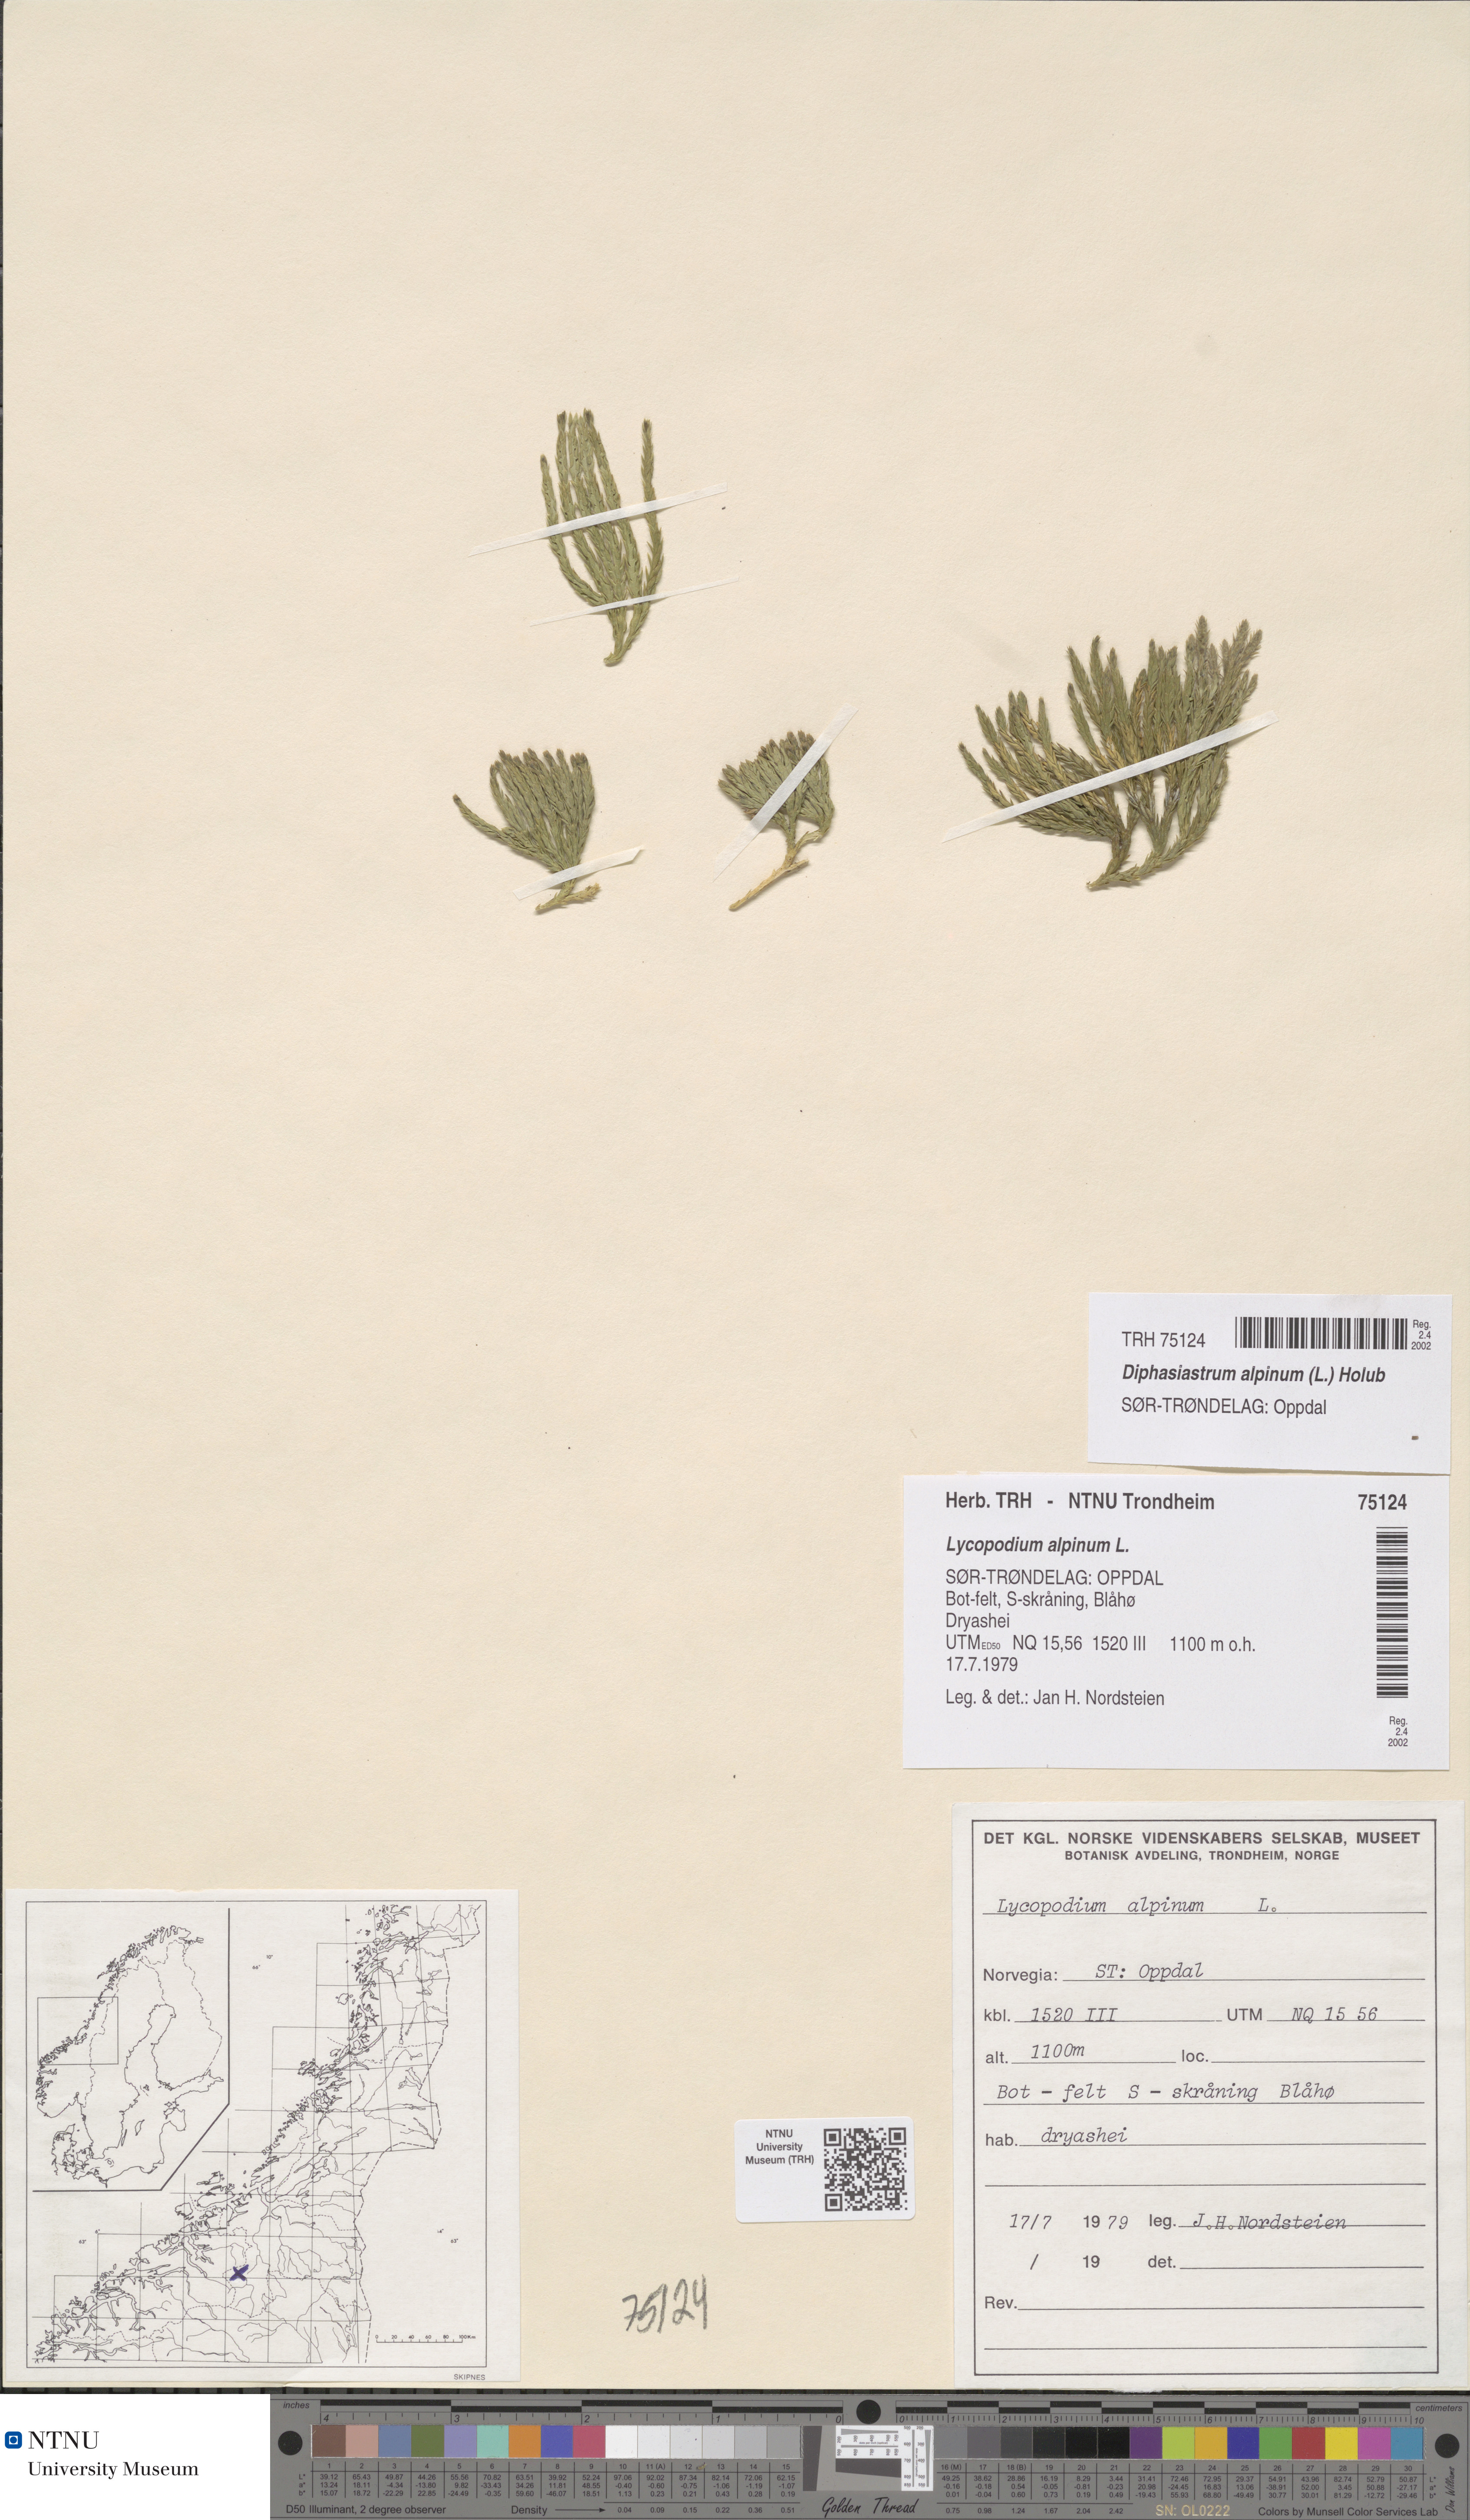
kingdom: Plantae
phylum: Tracheophyta
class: Lycopodiopsida
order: Lycopodiales
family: Lycopodiaceae
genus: Diphasiastrum
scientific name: Diphasiastrum alpinum
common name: Alpine clubmoss
